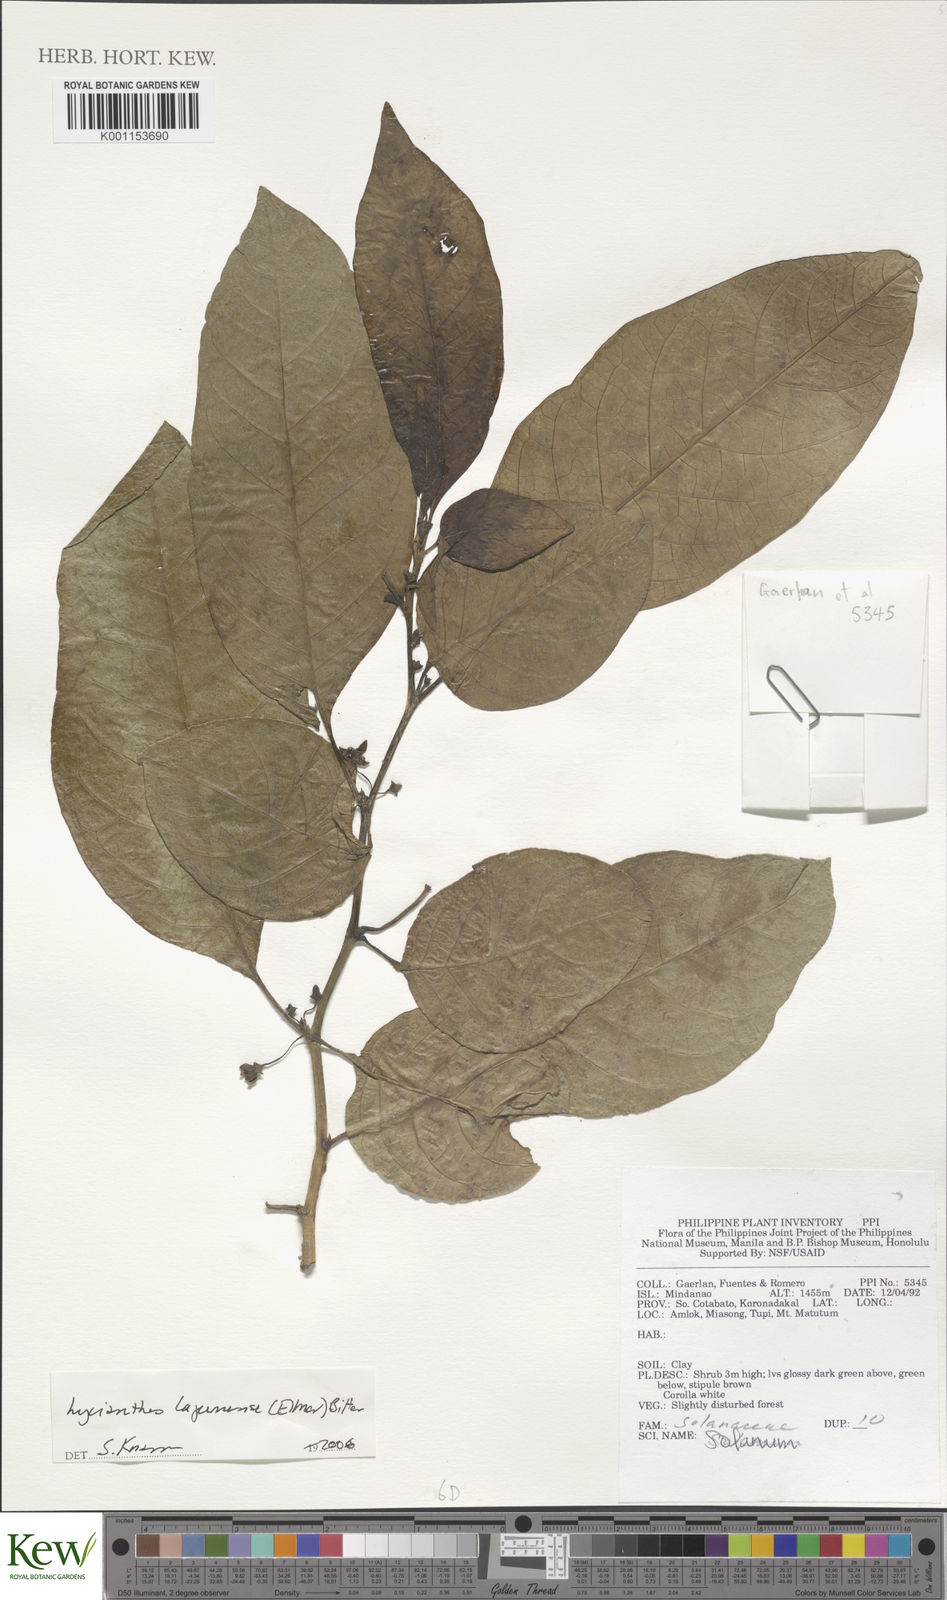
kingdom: Plantae
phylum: Tracheophyta
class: Magnoliopsida
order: Solanales
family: Solanaceae
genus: Lycianthes
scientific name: Lycianthes lagunensis
